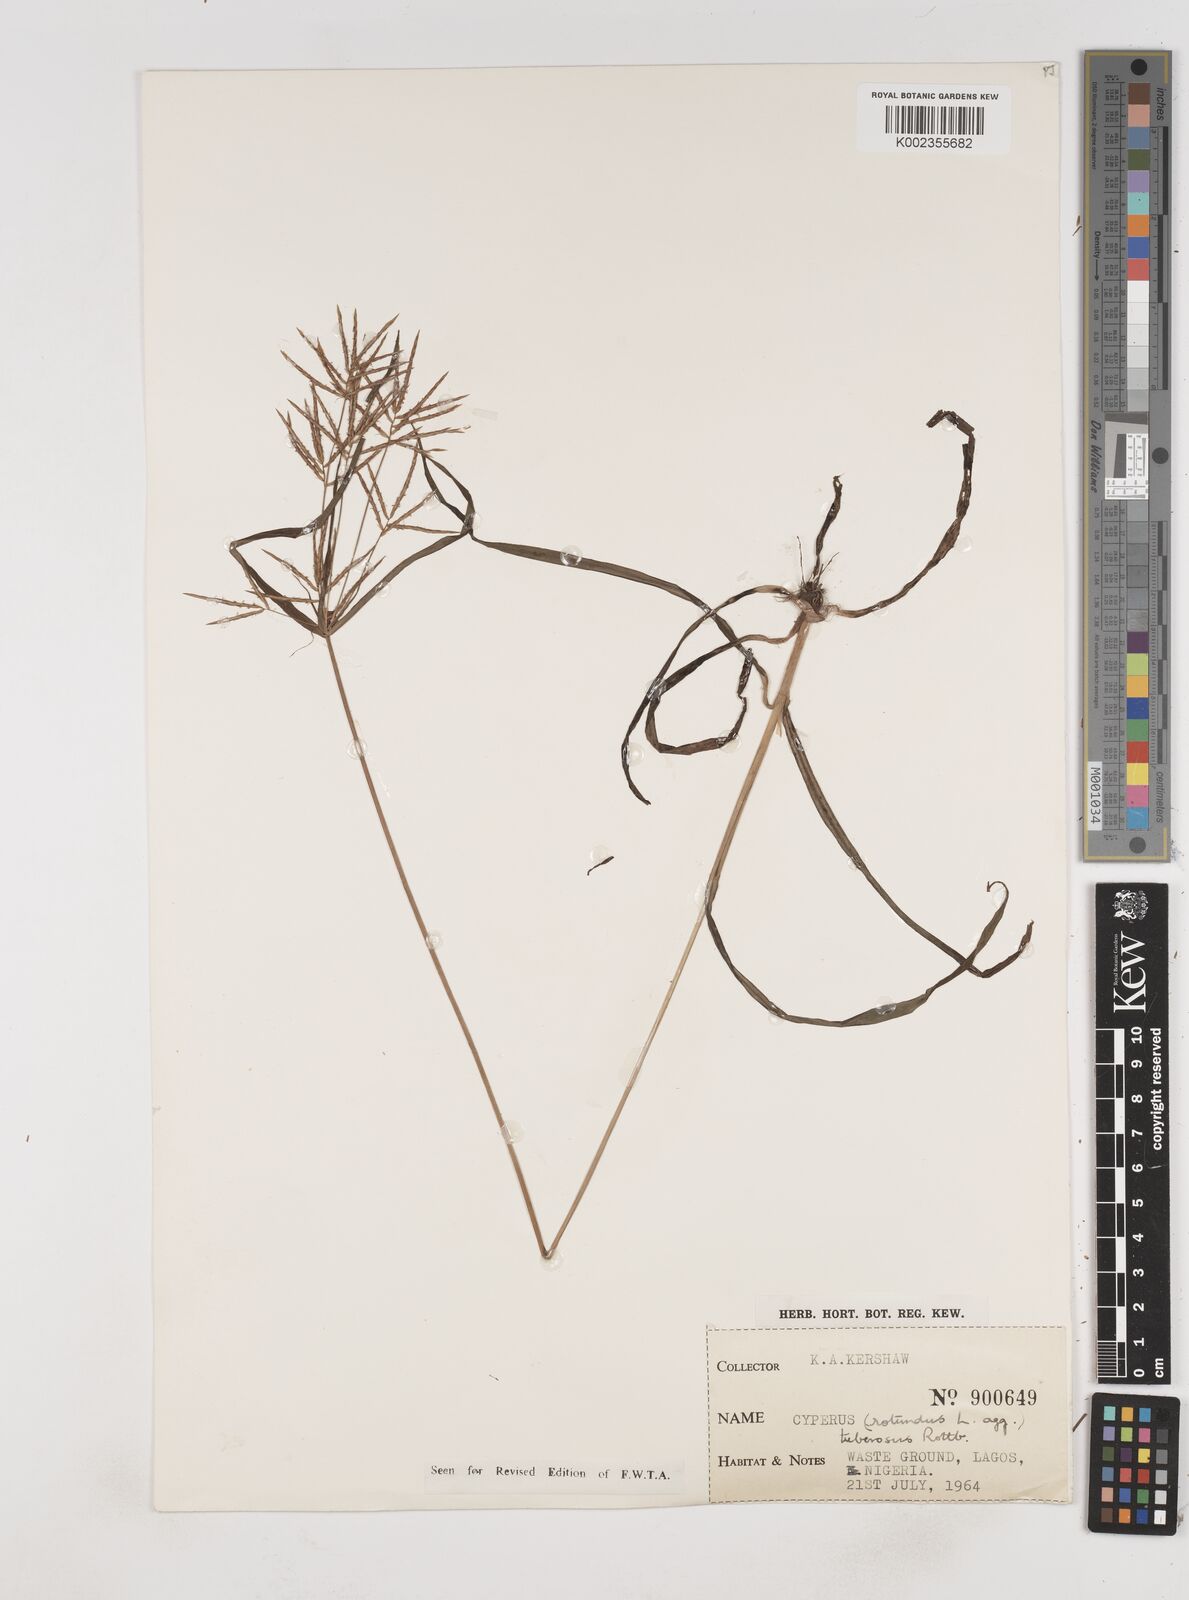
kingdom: Plantae
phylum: Tracheophyta
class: Liliopsida
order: Poales
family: Cyperaceae
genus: Cyperus
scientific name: Cyperus tuberosus
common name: Nut grass
